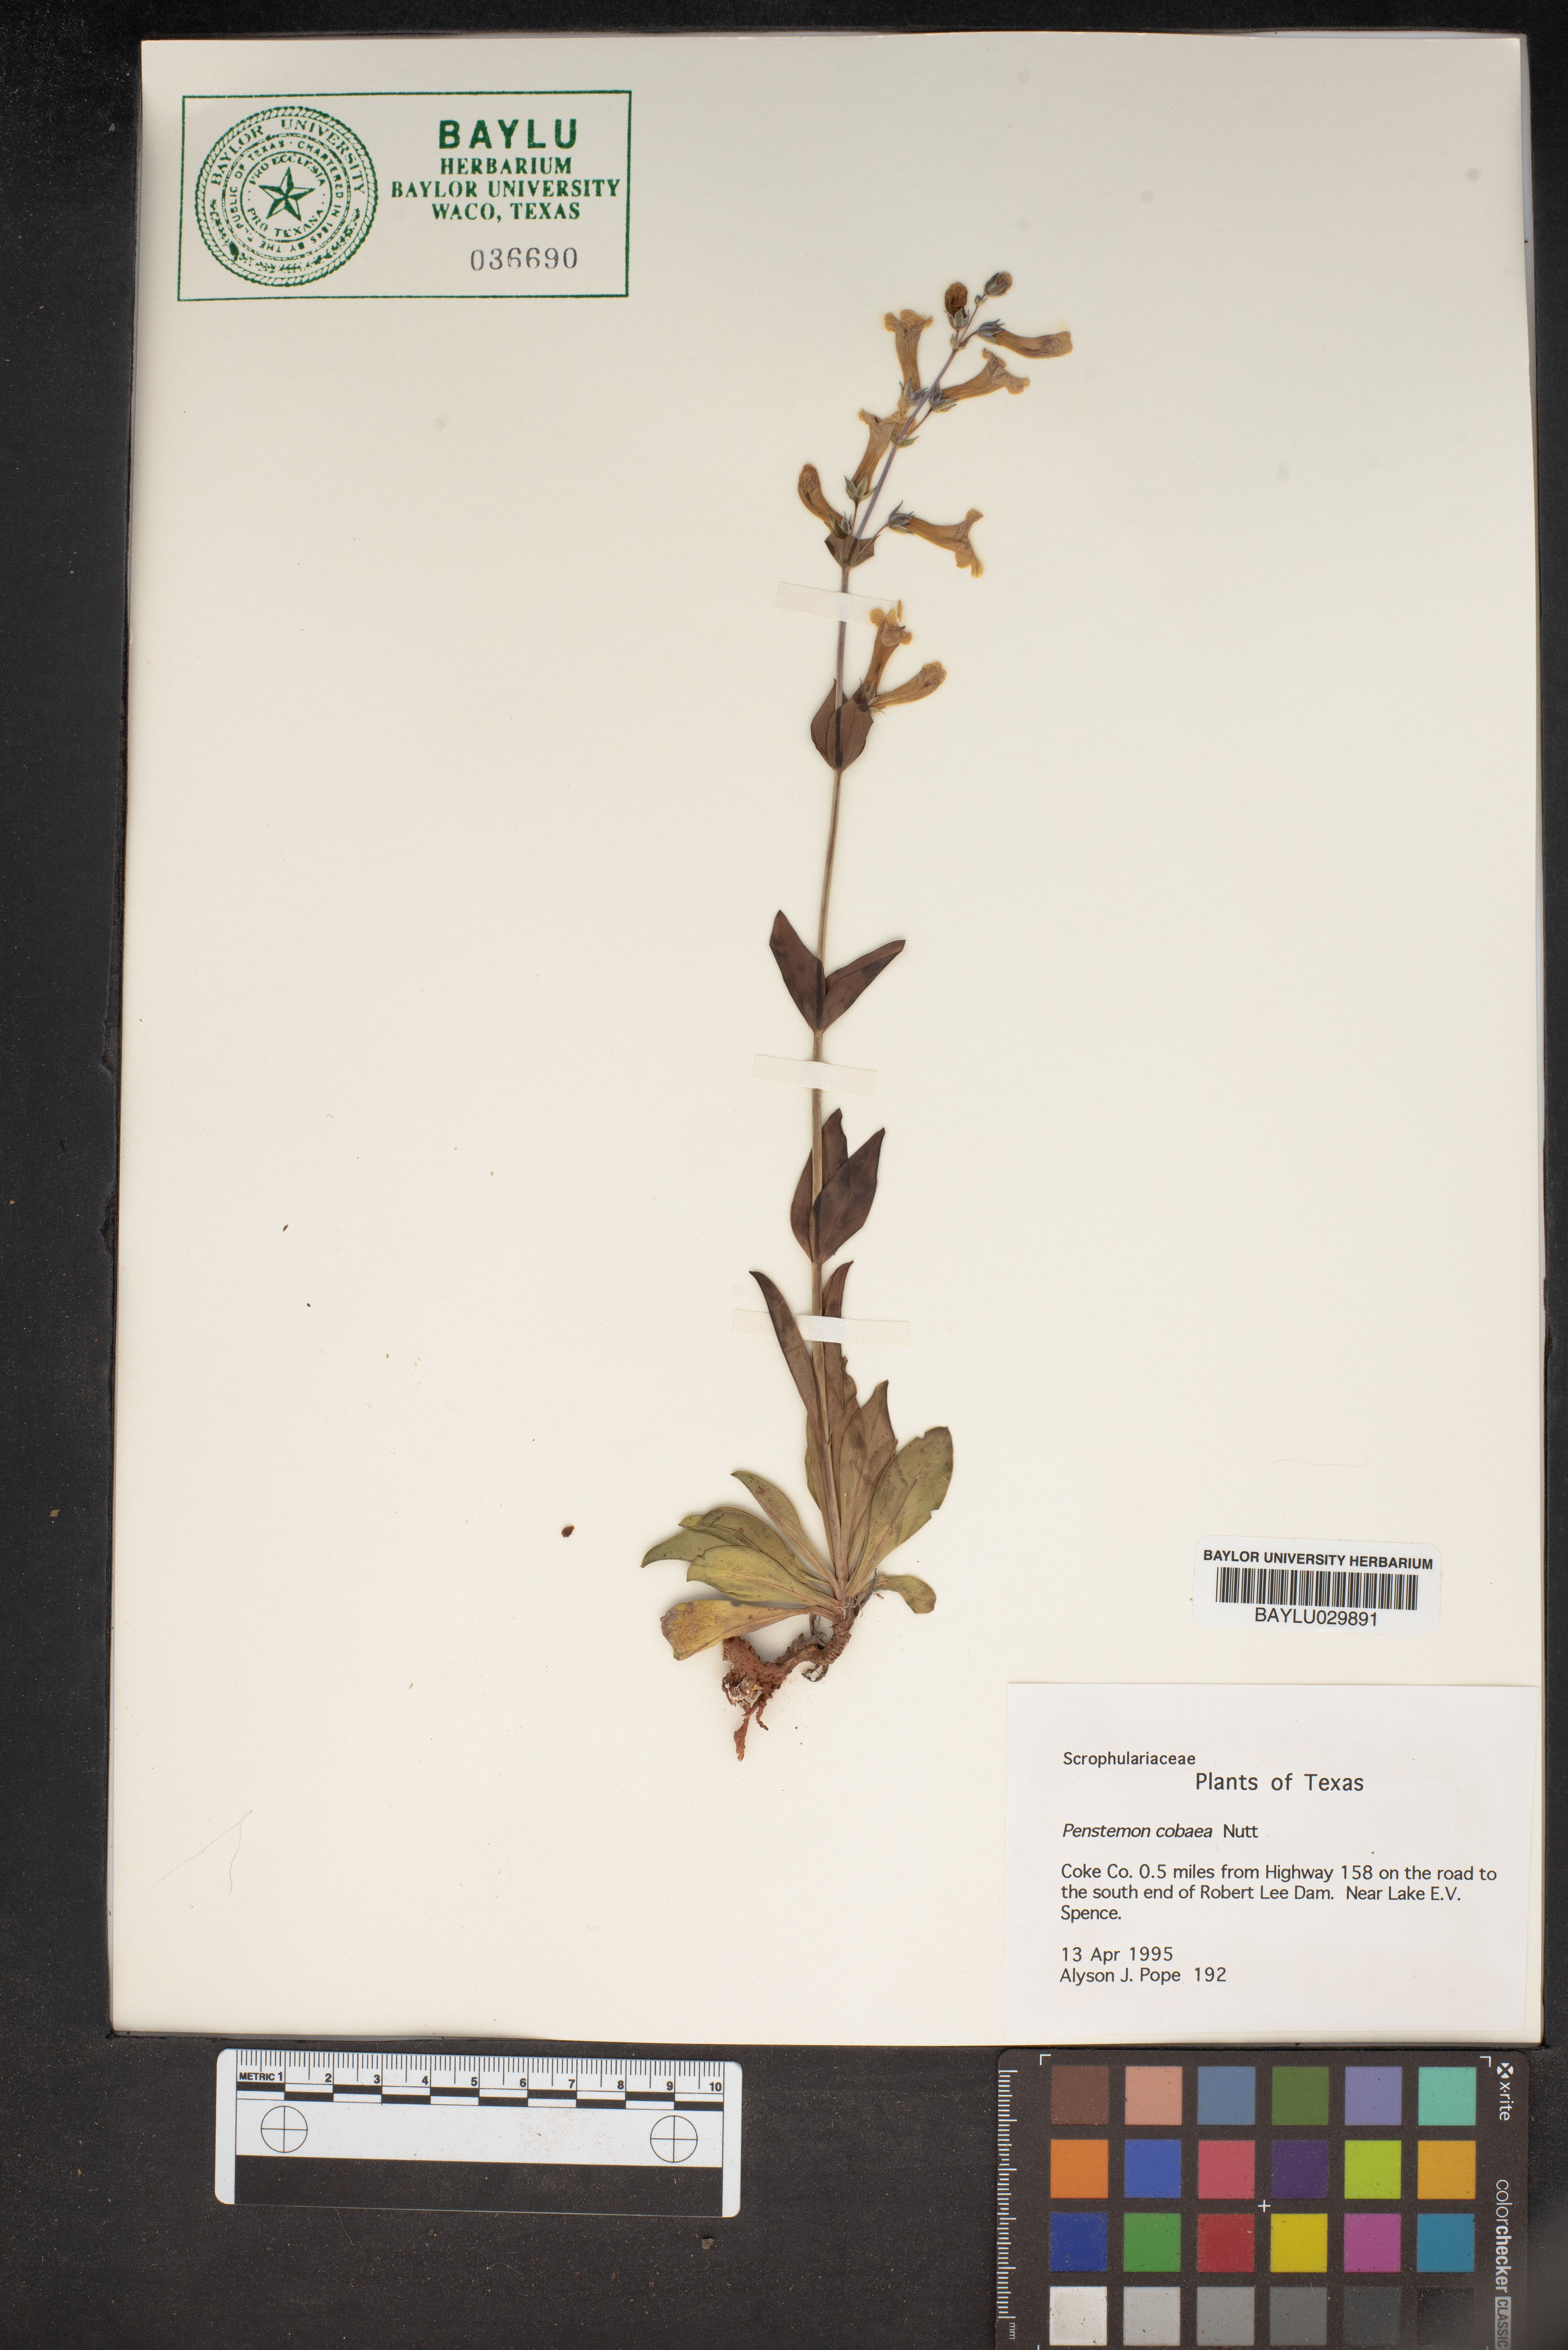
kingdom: Plantae
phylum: Tracheophyta
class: Magnoliopsida
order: Lamiales
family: Plantaginaceae
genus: Penstemon
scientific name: Penstemon cobaea
